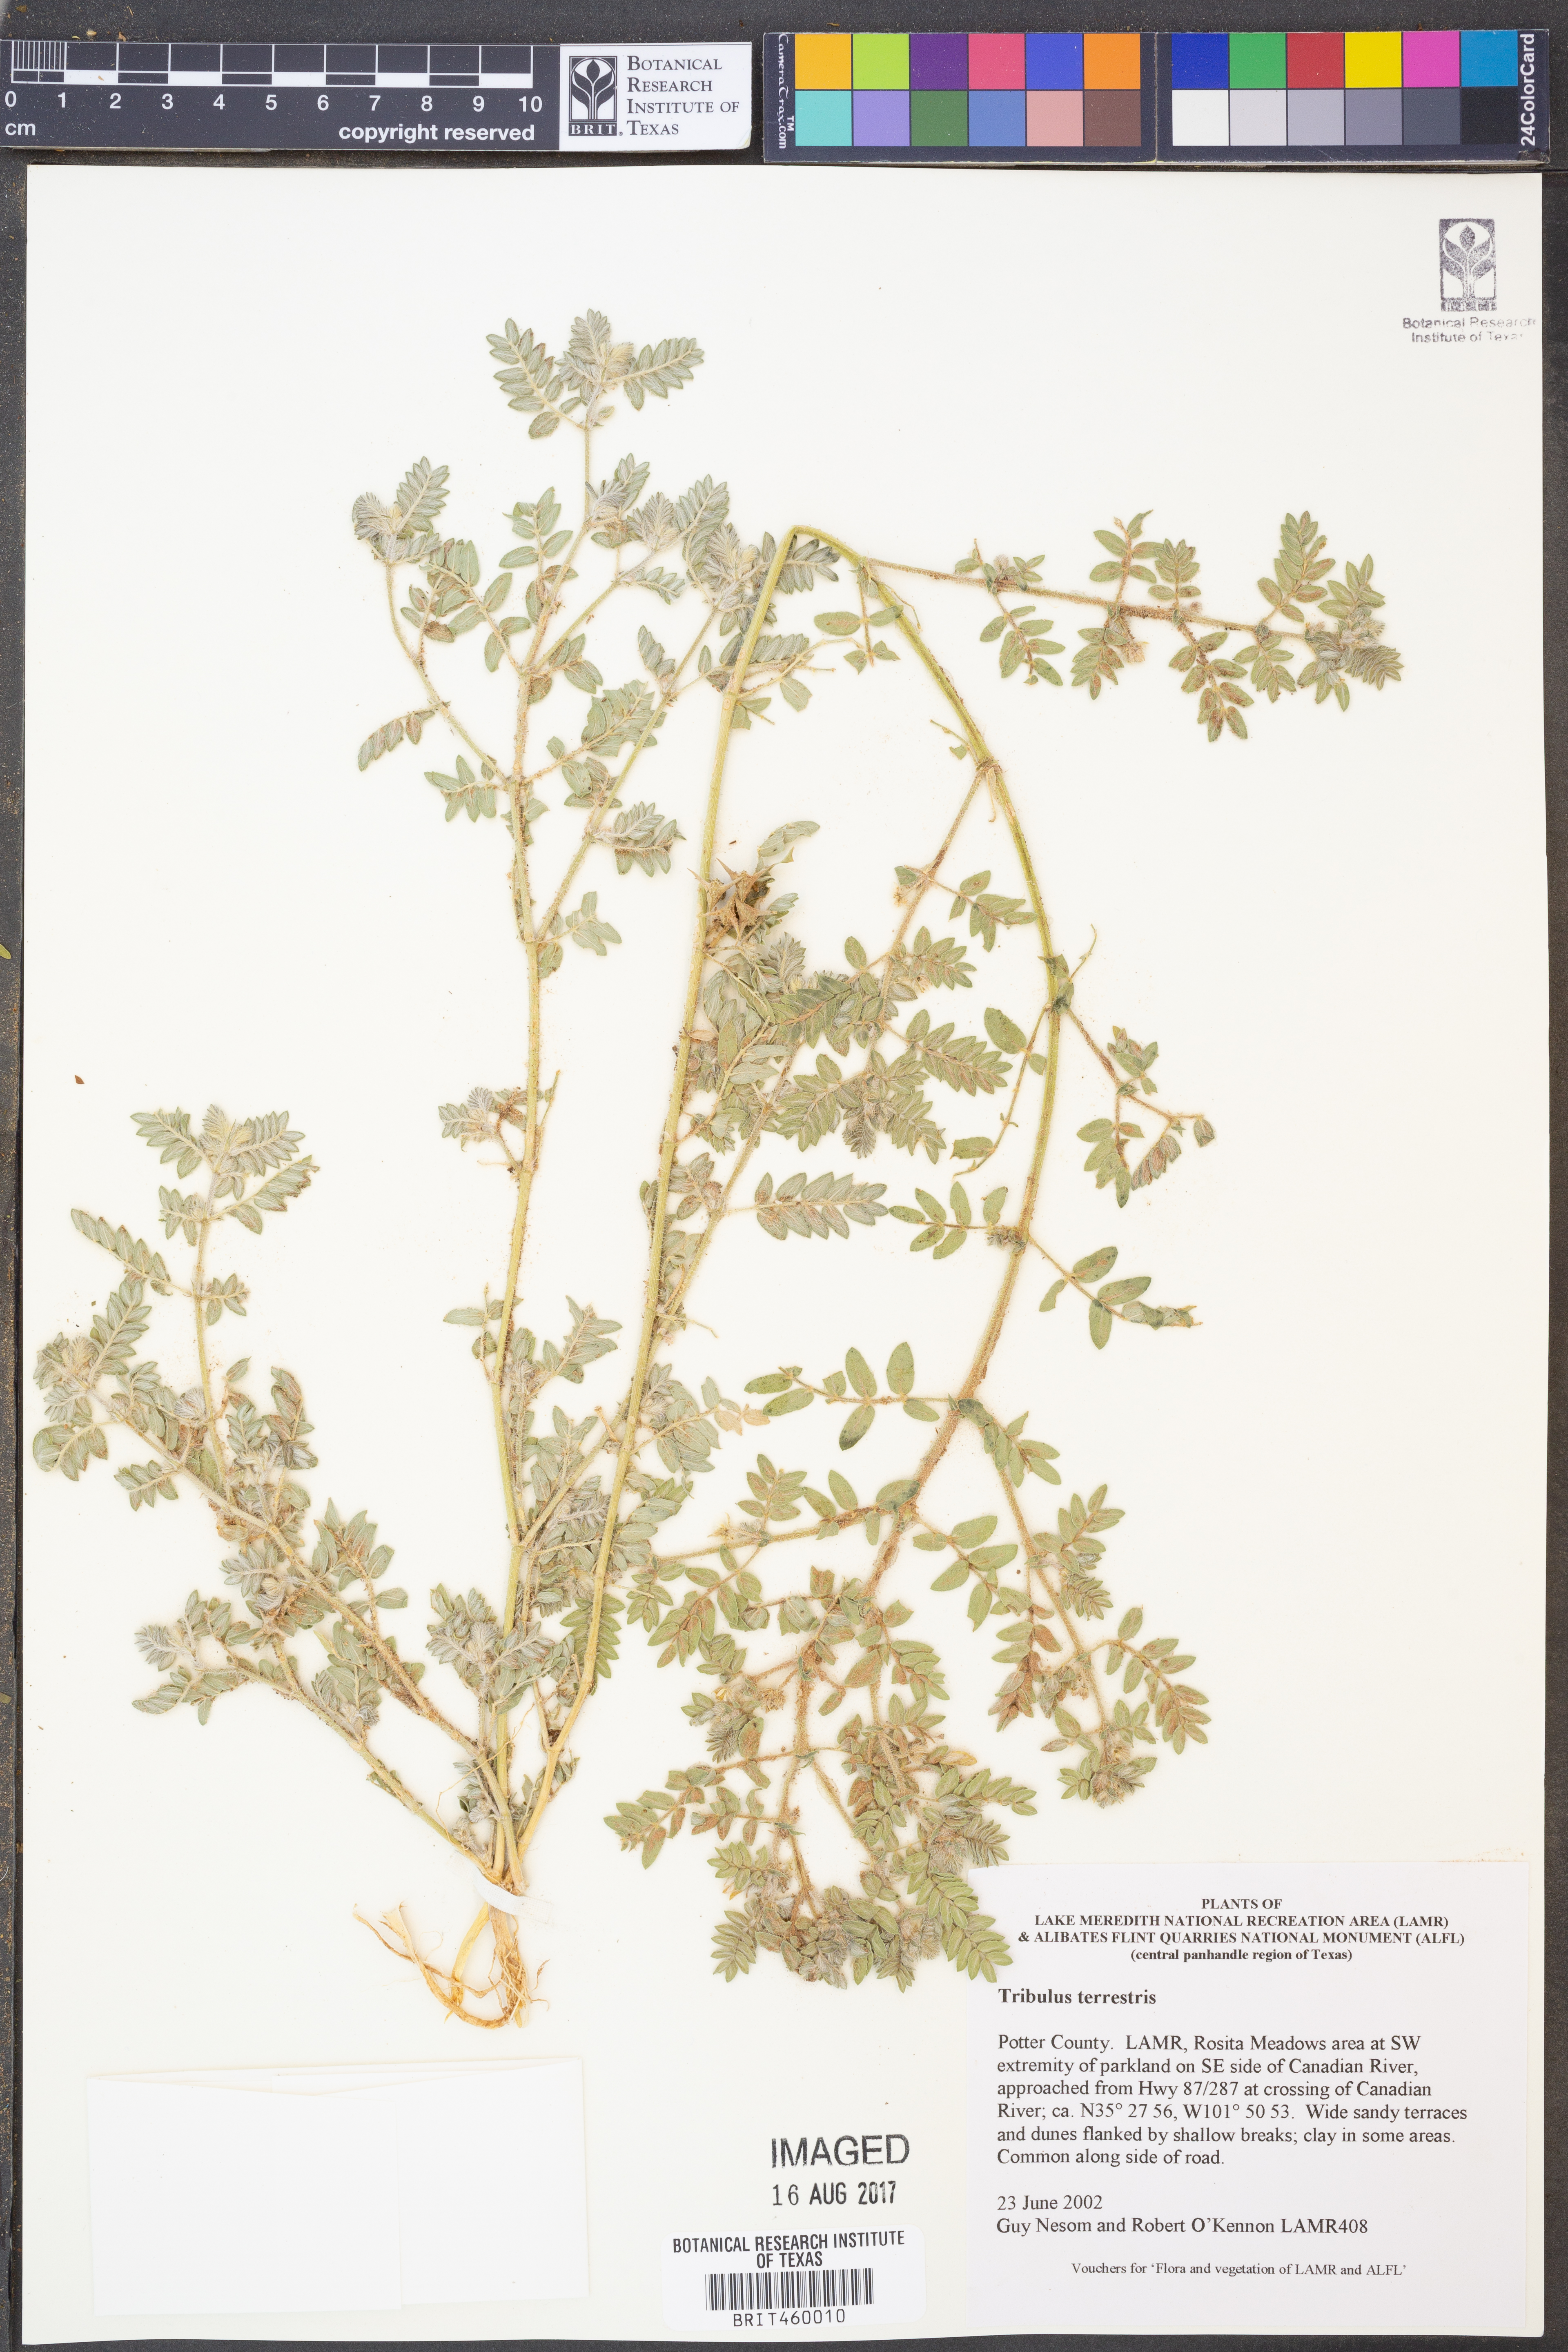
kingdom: Plantae
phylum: Tracheophyta
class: Magnoliopsida
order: Zygophyllales
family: Zygophyllaceae
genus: Tribulus
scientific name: Tribulus terrestris
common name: Puncturevine
